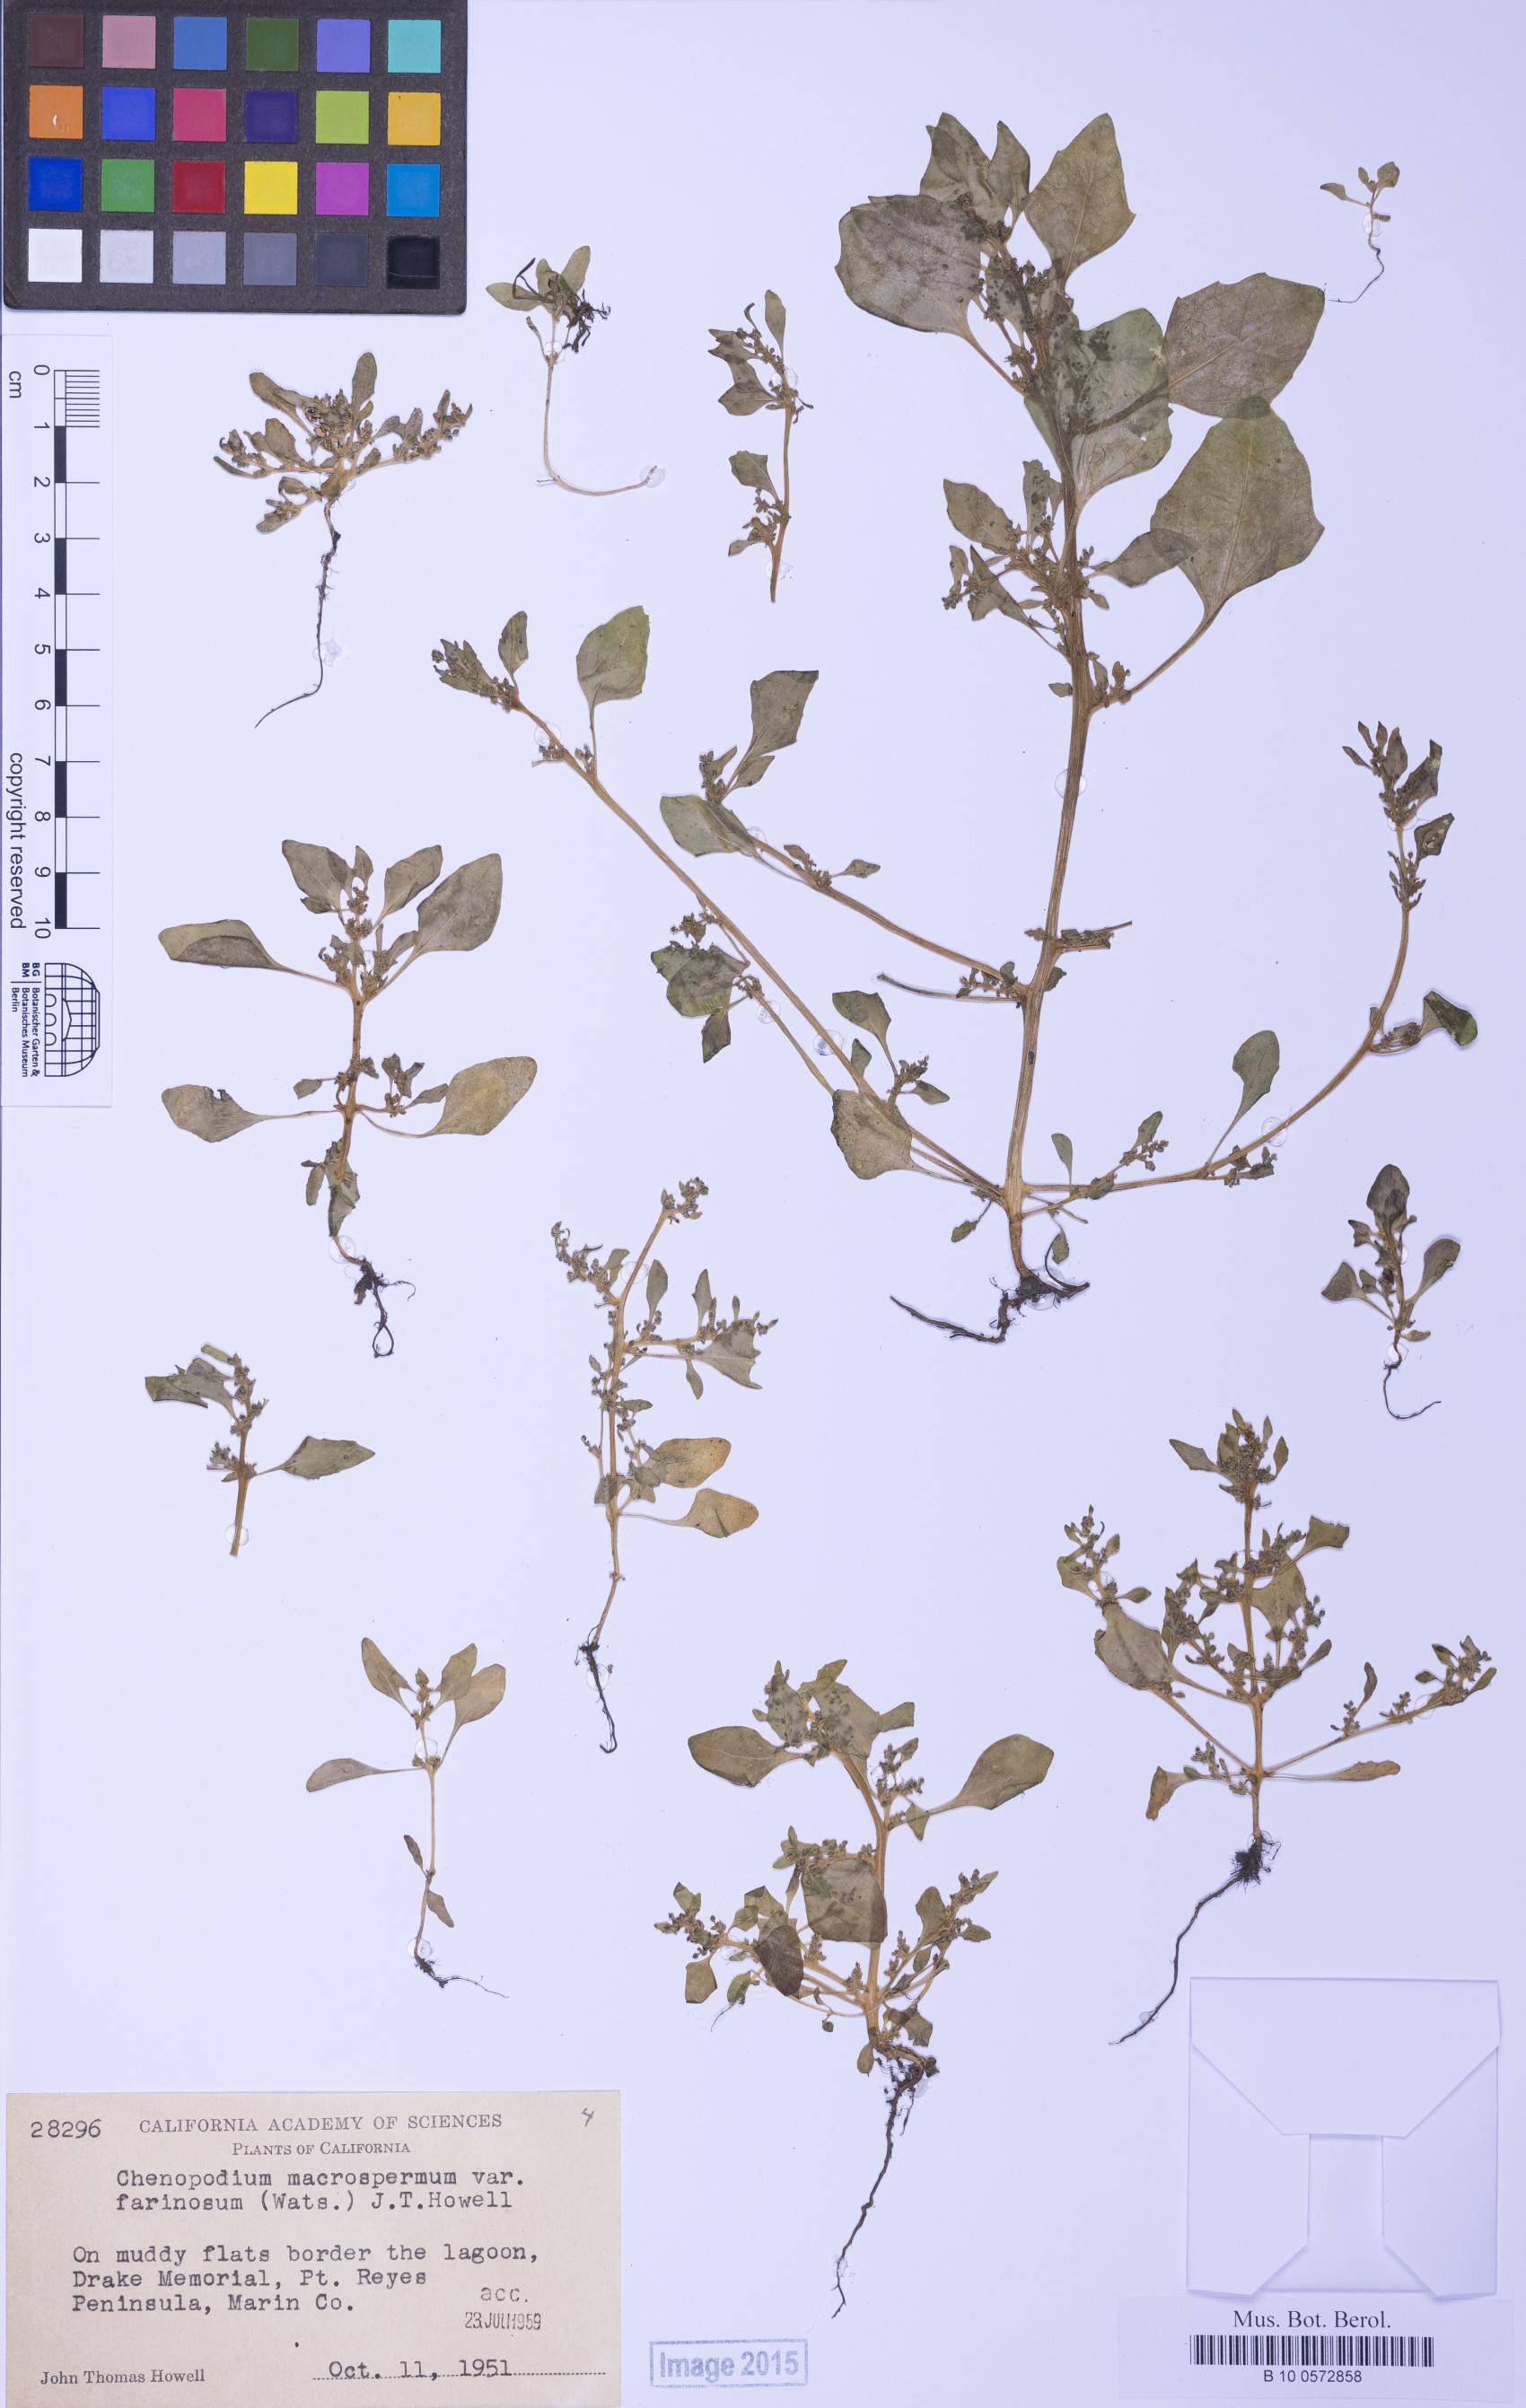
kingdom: Plantae
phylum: Tracheophyta
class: Magnoliopsida
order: Caryophyllales
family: Amaranthaceae
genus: Oxybasis
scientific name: Oxybasis chenopodioides
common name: Saltmarsh goosefoot
